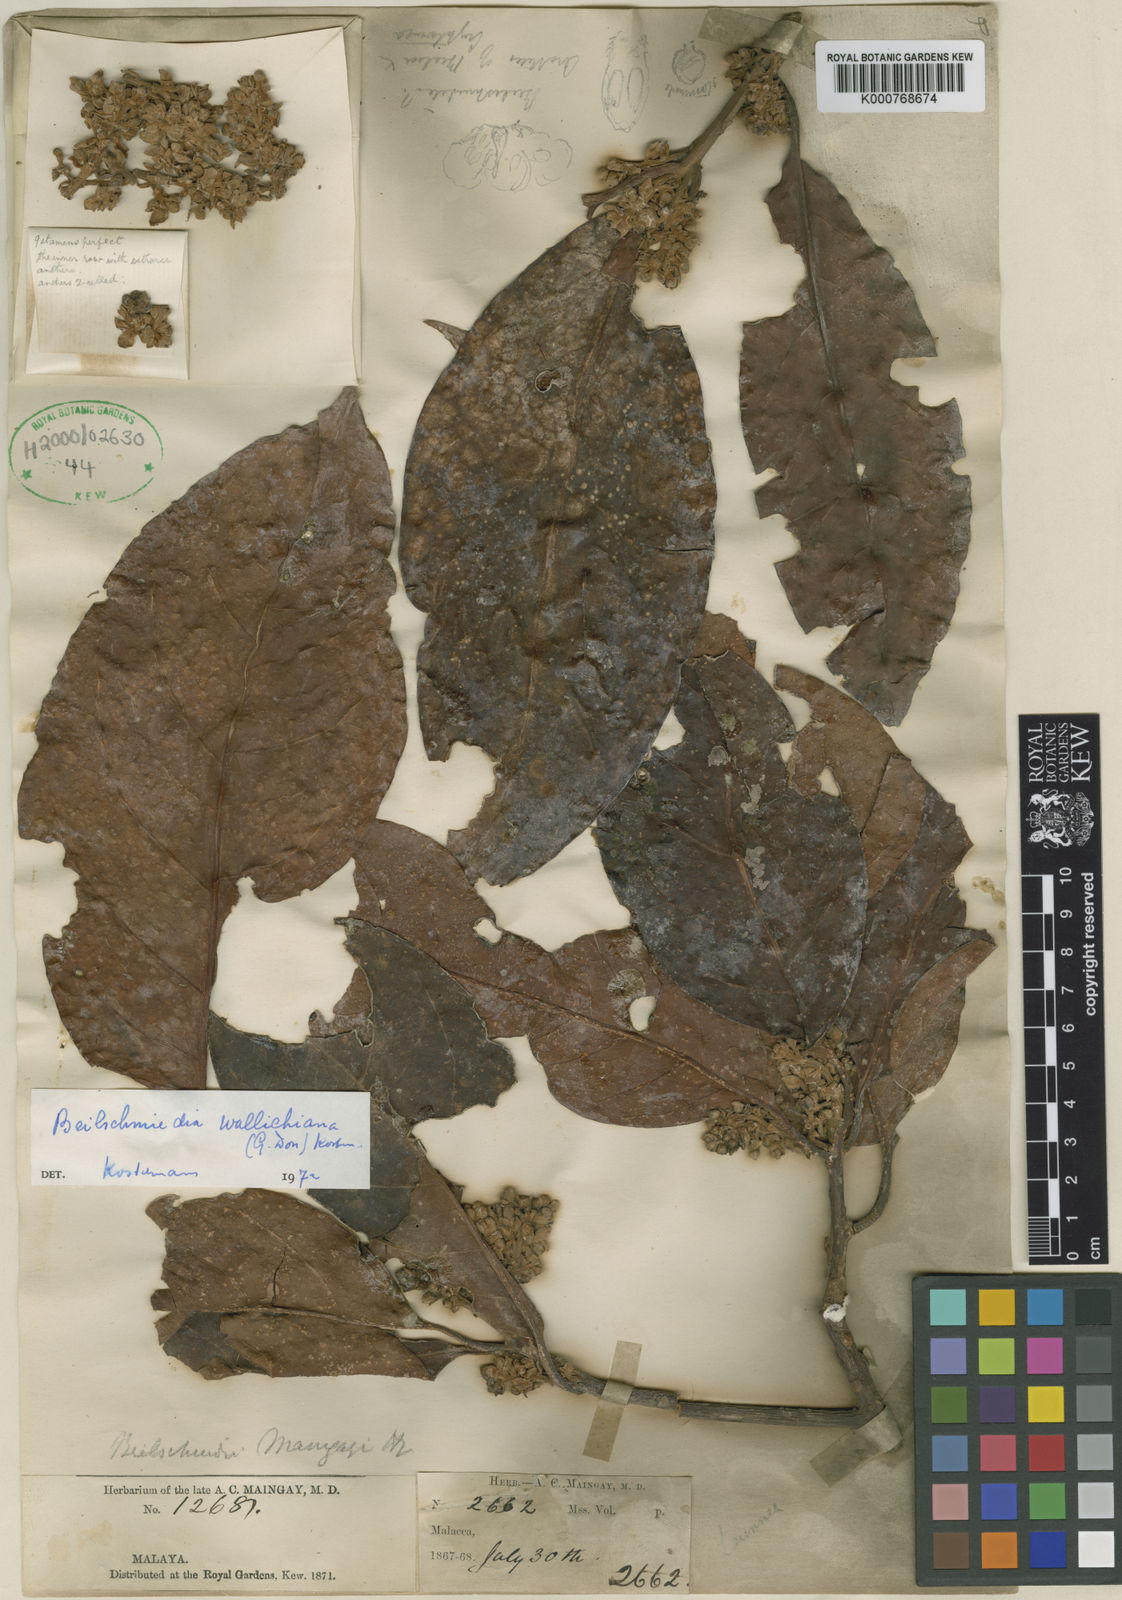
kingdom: Plantae
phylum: Tracheophyta
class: Magnoliopsida
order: Laurales
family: Lauraceae
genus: Beilschmiedia
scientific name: Beilschmiedia maingayi
